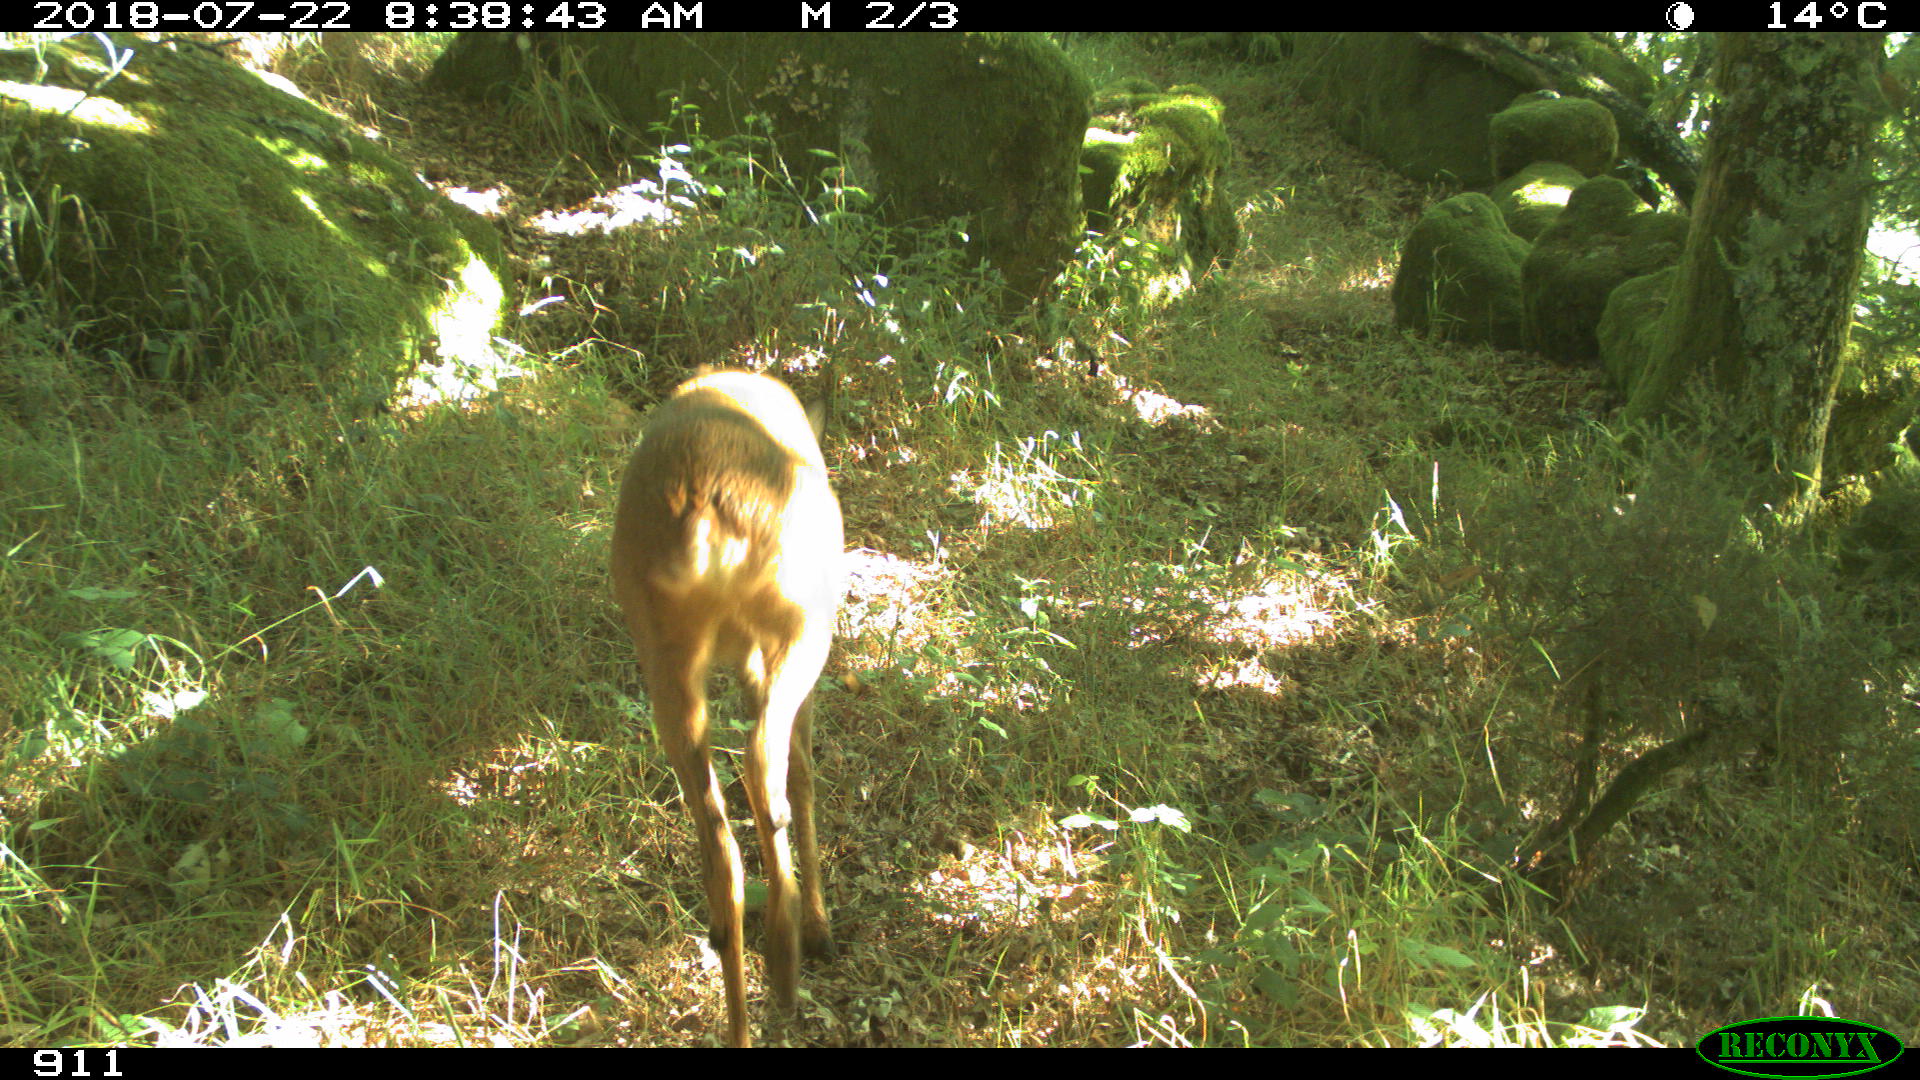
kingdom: Animalia
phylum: Chordata
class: Mammalia
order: Artiodactyla
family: Cervidae
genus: Capreolus
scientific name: Capreolus capreolus
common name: Western roe deer
